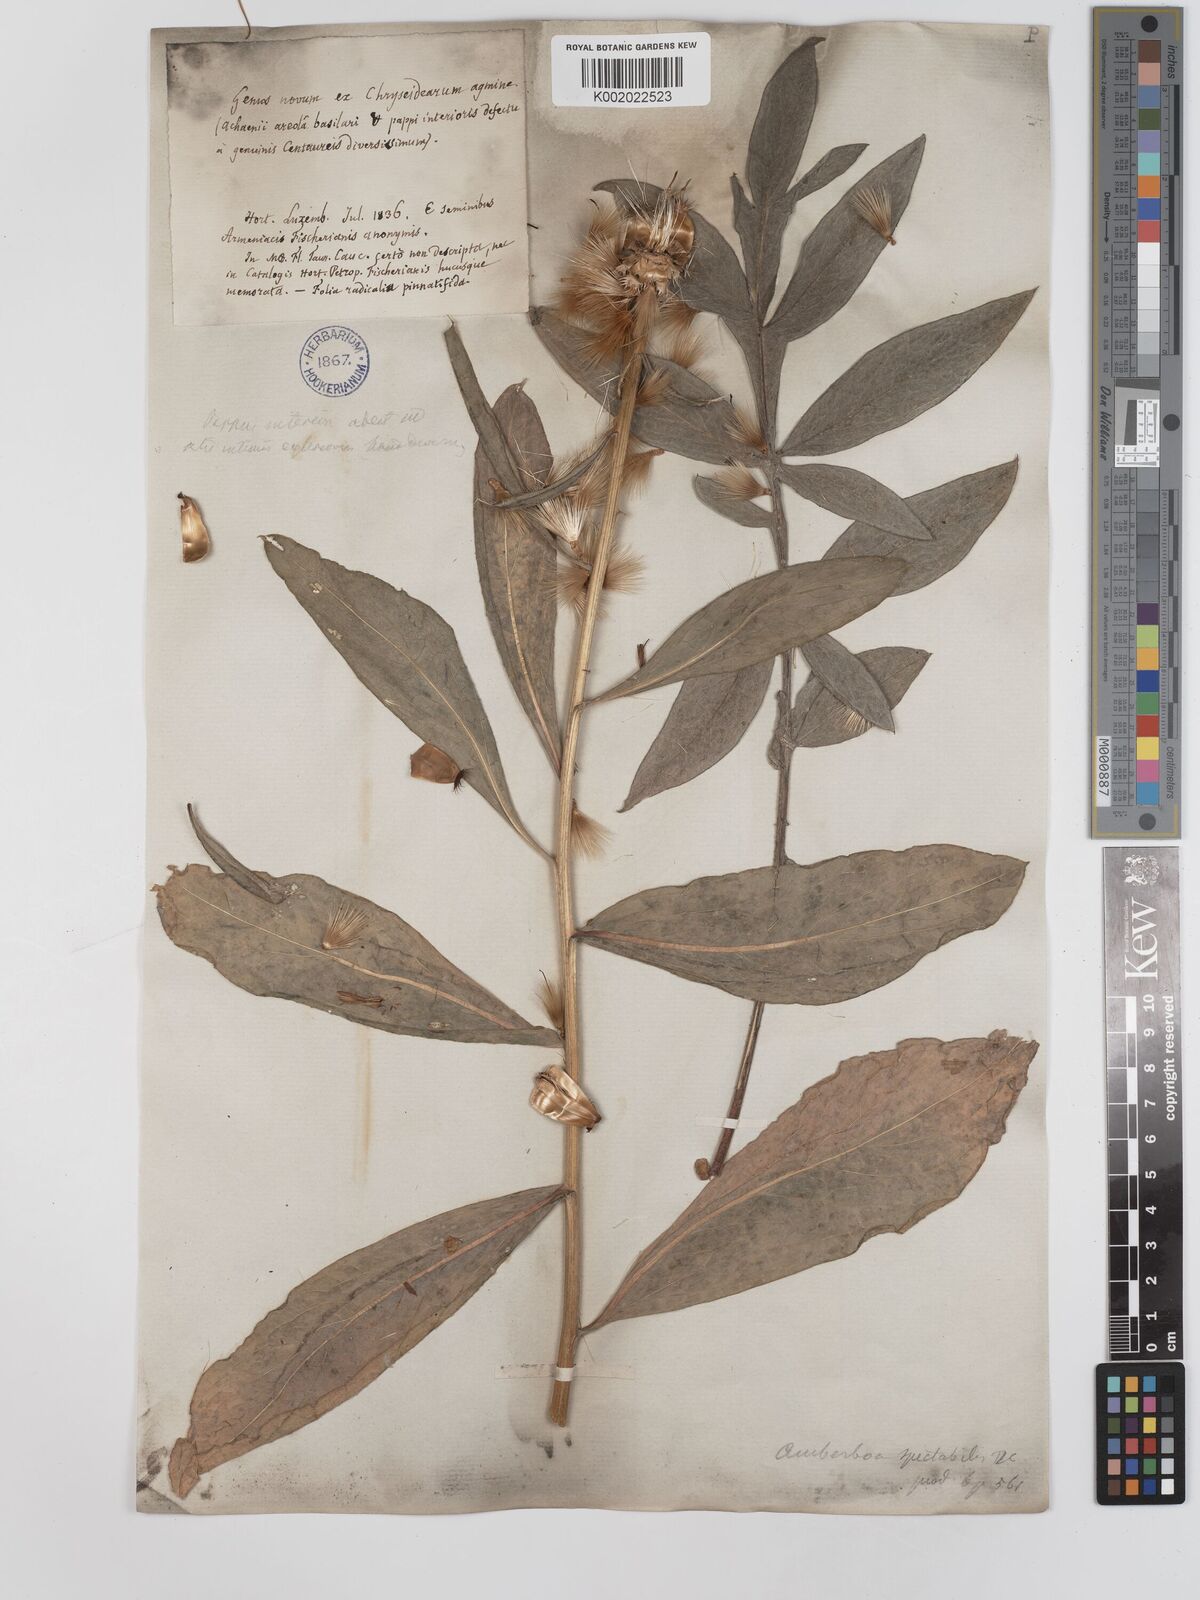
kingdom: Plantae
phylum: Tracheophyta
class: Magnoliopsida
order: Asterales
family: Asteraceae
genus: Centaurea
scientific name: Centaurea spectabilis
